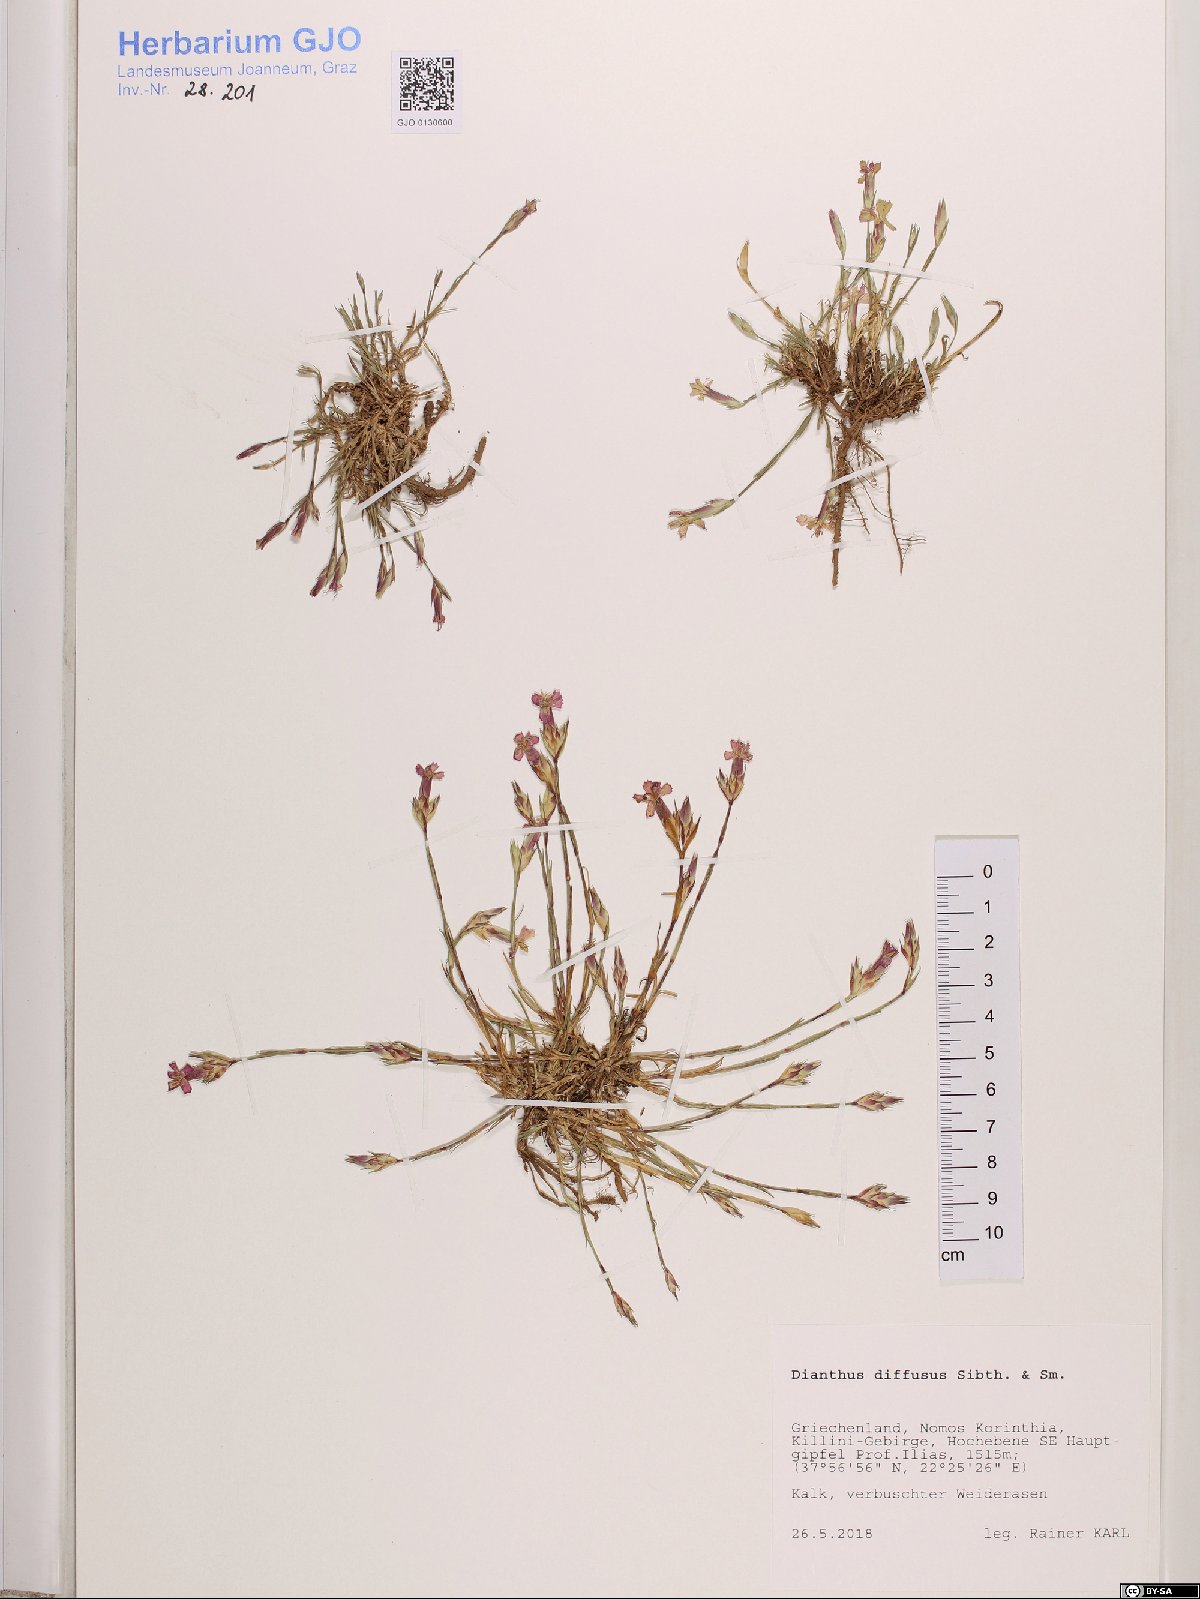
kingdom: Plantae
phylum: Tracheophyta
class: Magnoliopsida
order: Caryophyllales
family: Caryophyllaceae
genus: Dianthus
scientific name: Dianthus diffusus
